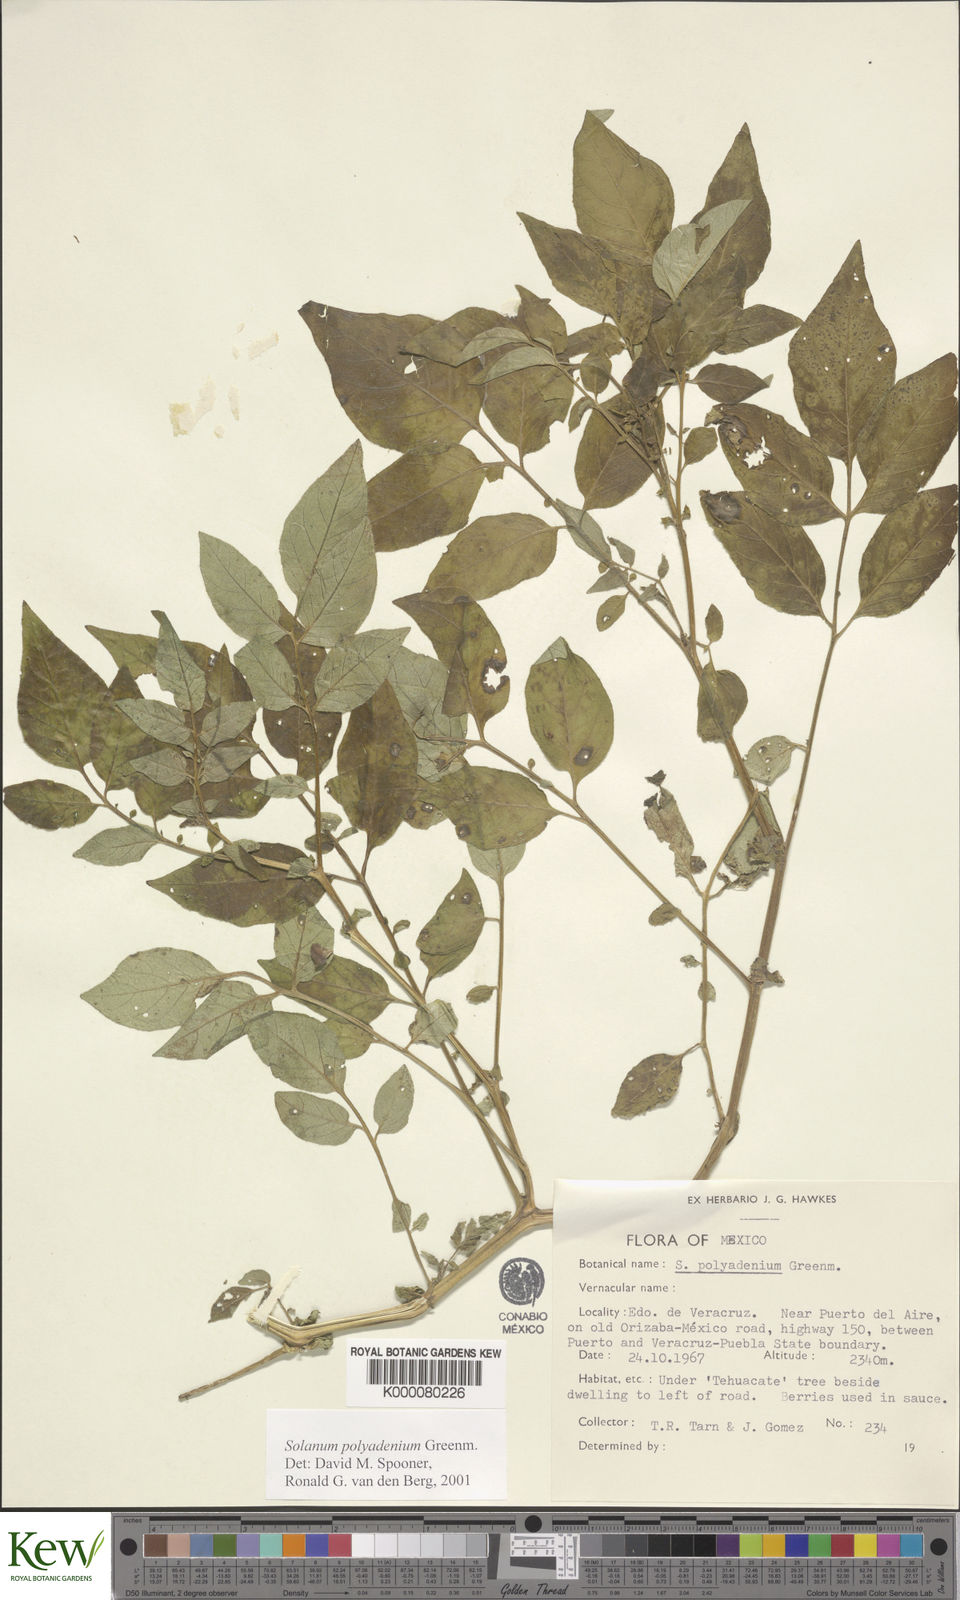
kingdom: Plantae
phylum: Tracheophyta
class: Magnoliopsida
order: Solanales
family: Solanaceae
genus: Solanum
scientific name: Solanum polyadenium
